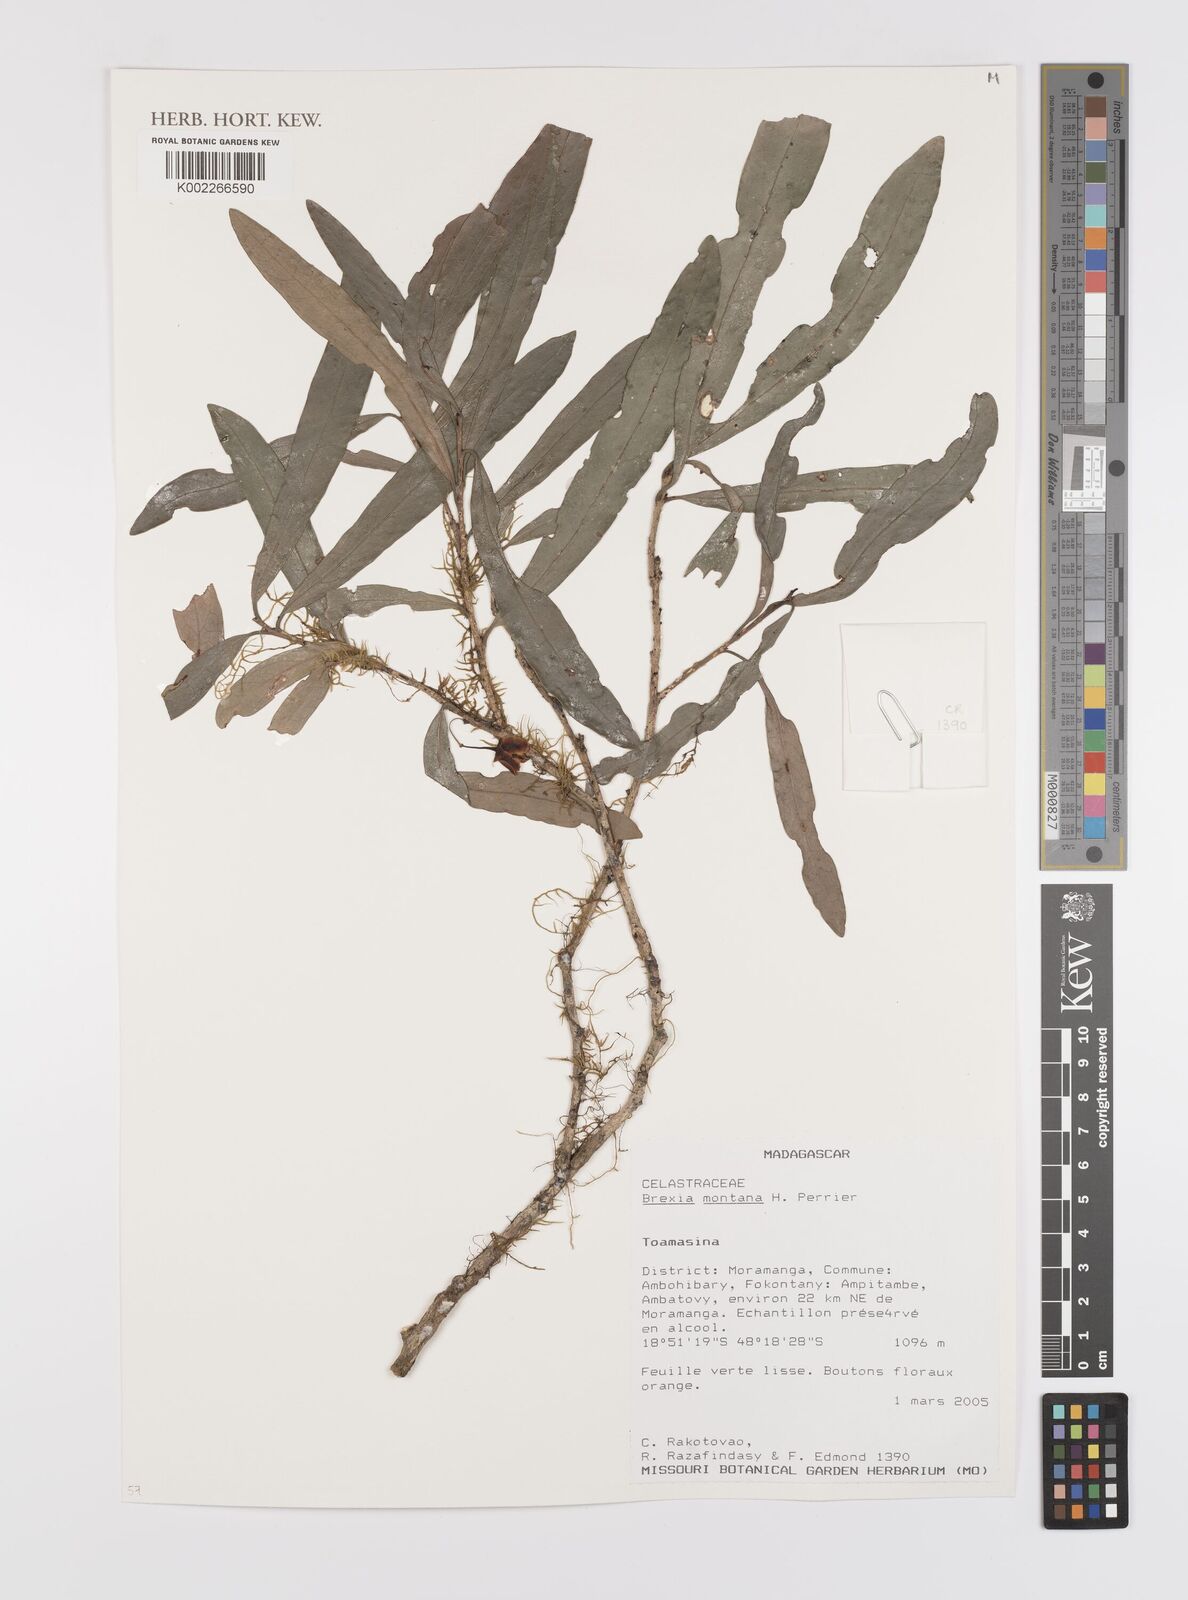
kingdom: Plantae
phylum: Tracheophyta
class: Magnoliopsida
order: Celastrales
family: Celastraceae
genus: Brexia
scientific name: Brexia montana
